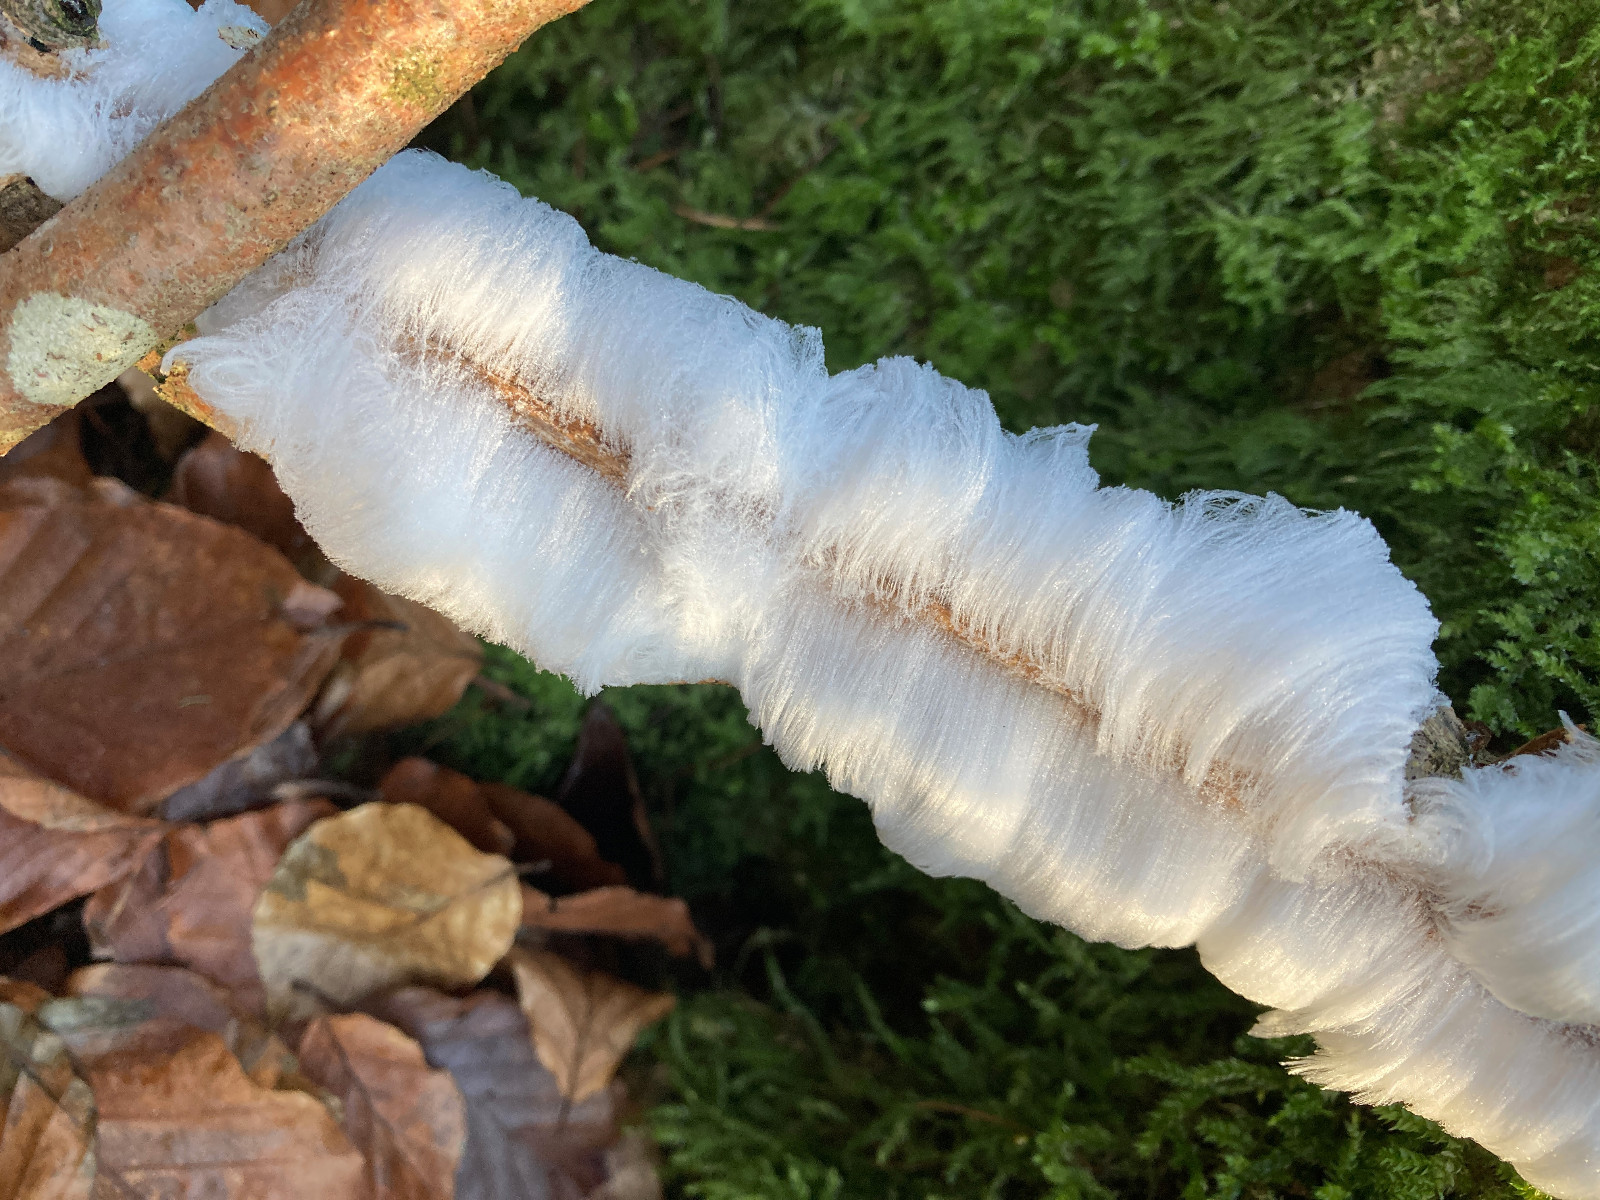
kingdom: Fungi
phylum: Basidiomycota
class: Tremellomycetes
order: Tremellales
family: Exidiaceae
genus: Exidiopsis
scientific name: Exidiopsis effusa
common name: smuk bævrehinde
